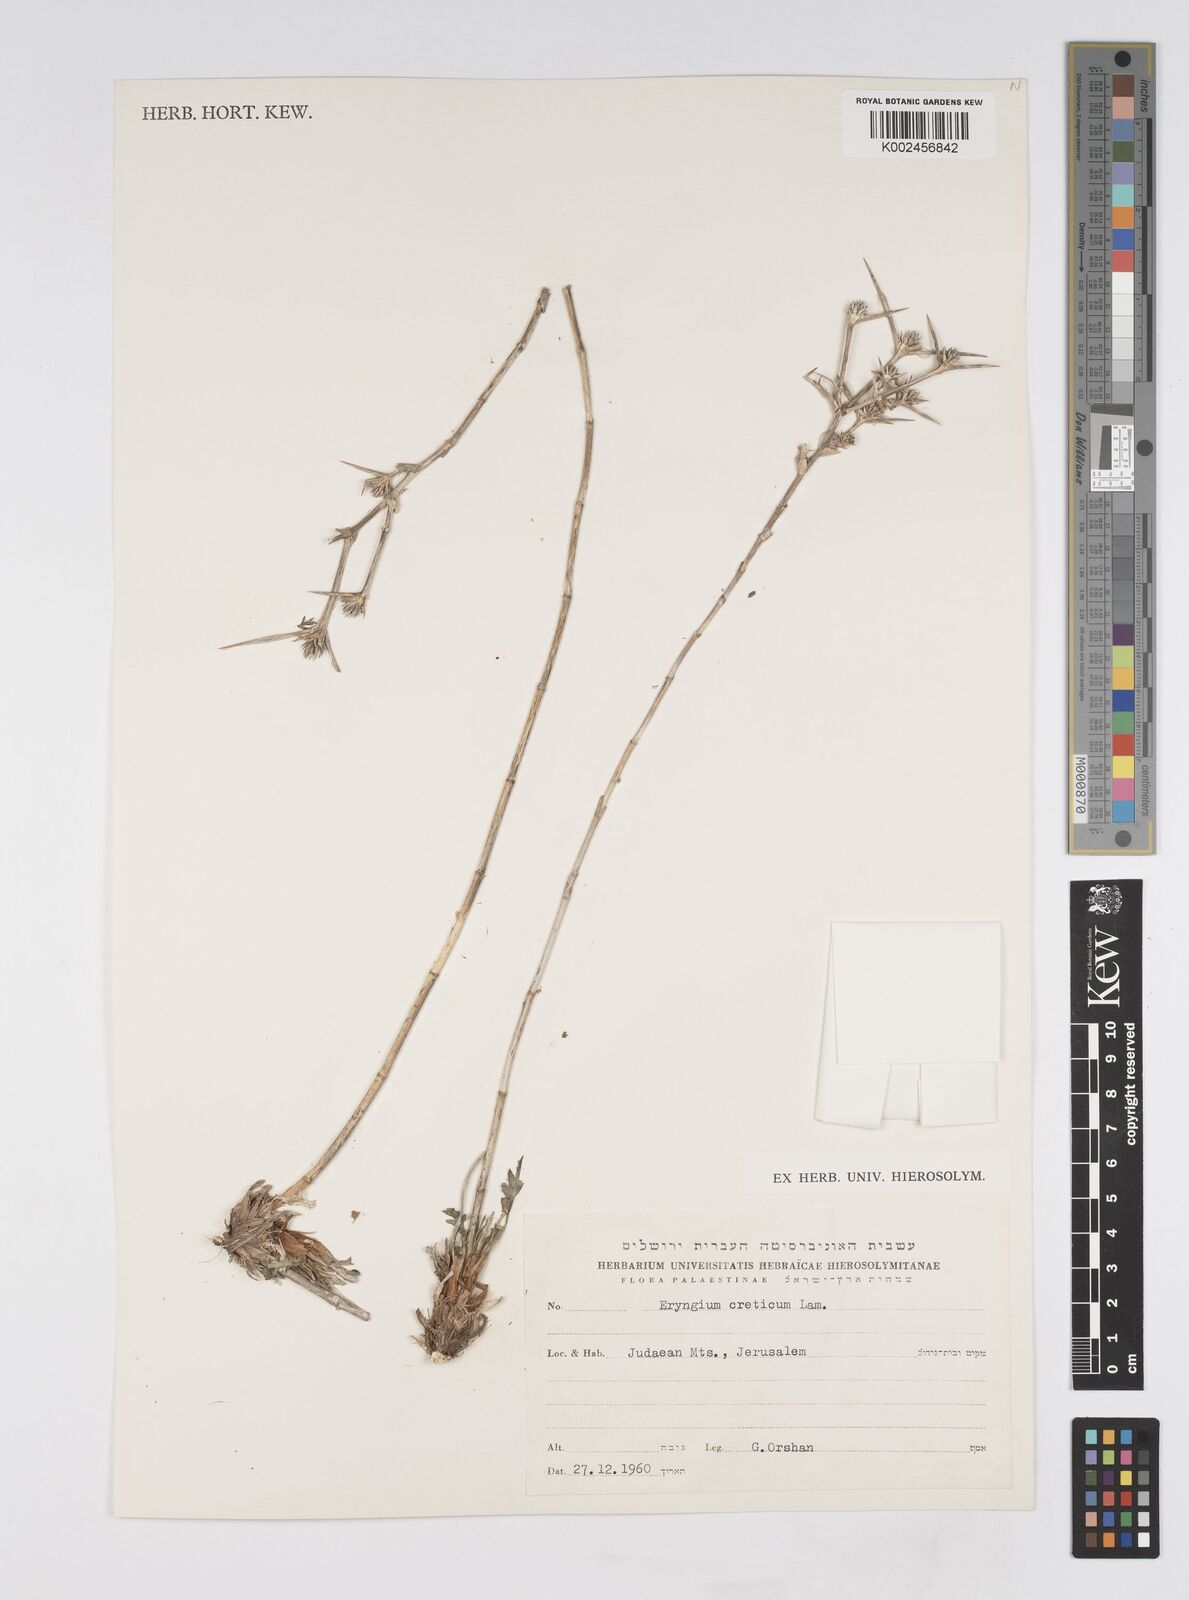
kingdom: Plantae
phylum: Tracheophyta
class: Magnoliopsida
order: Apiales
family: Apiaceae
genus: Eryngium
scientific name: Eryngium creticum
